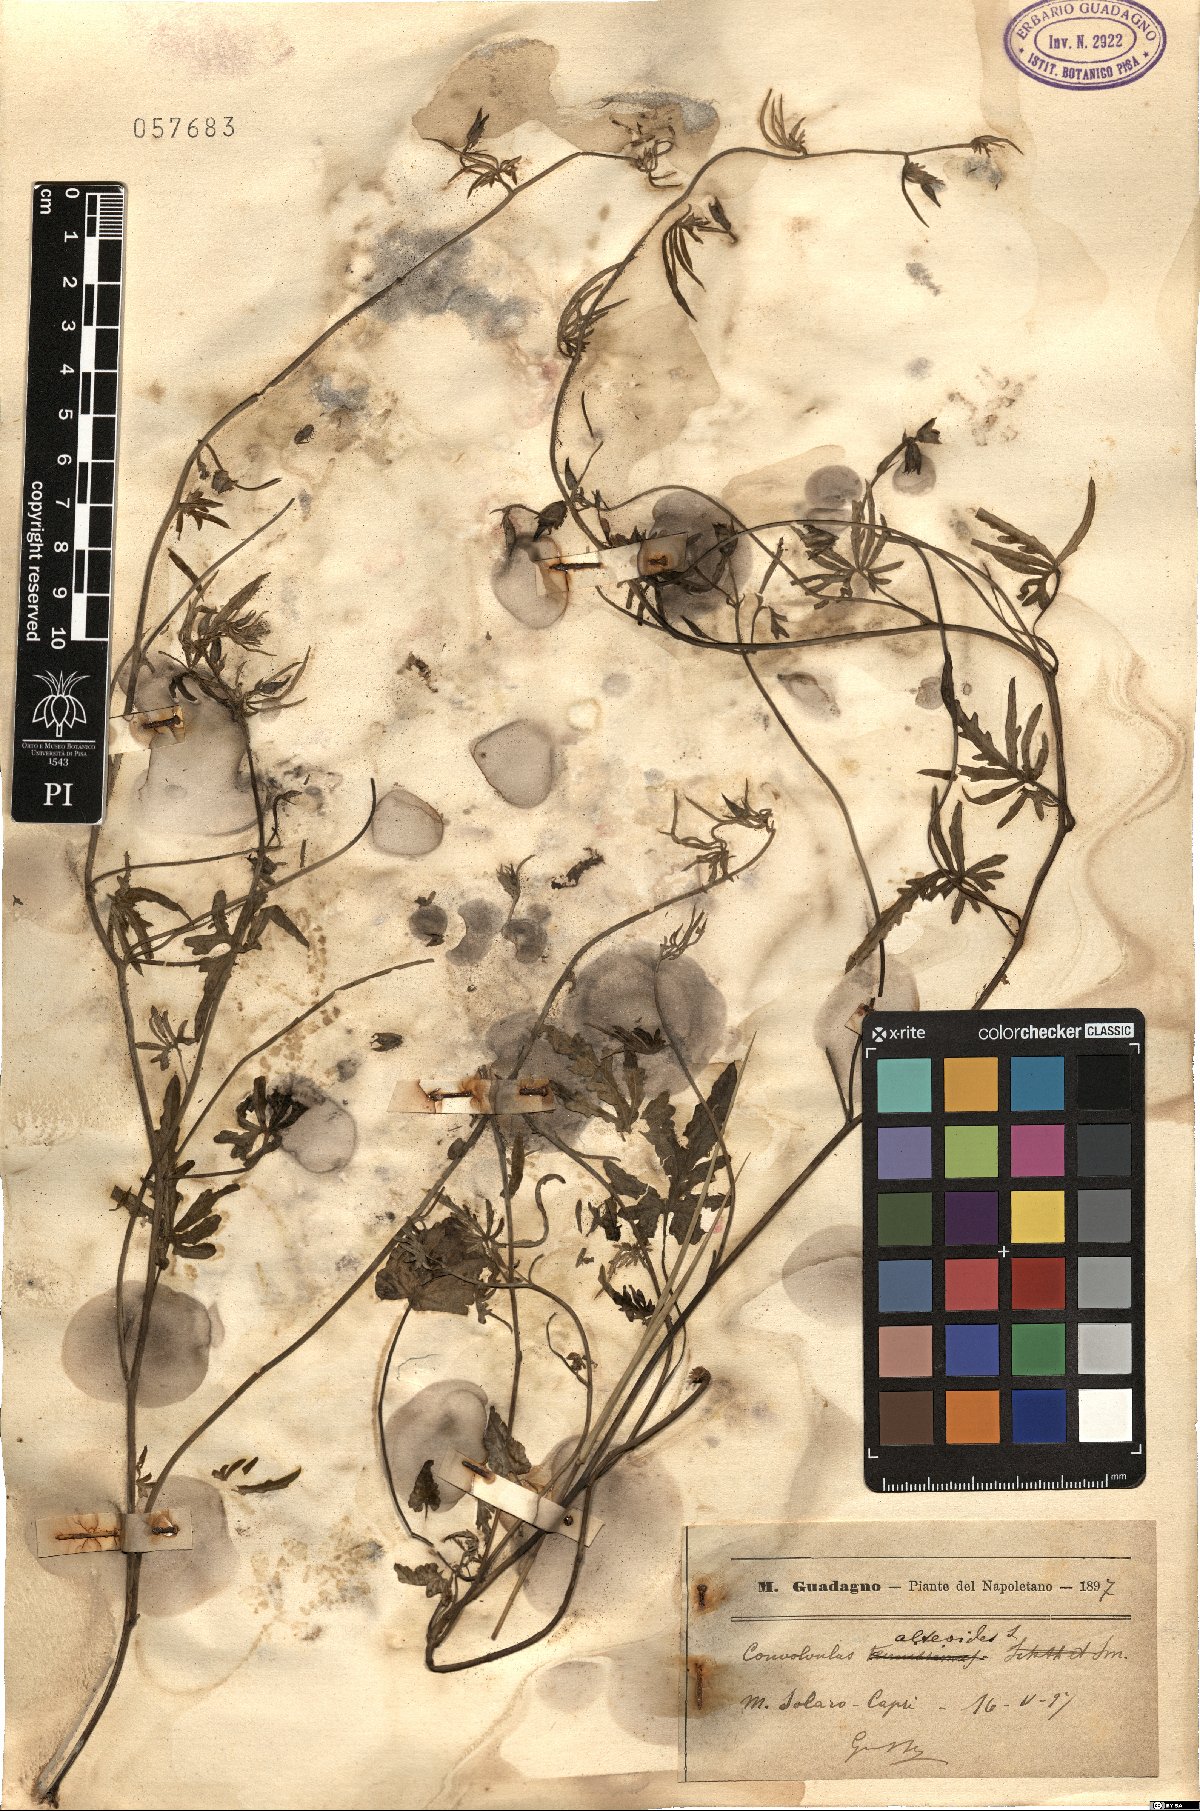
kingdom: Plantae
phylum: Tracheophyta
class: Magnoliopsida
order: Solanales
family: Convolvulaceae
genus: Convolvulus
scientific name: Convolvulus althaeoides
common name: Mallow bindweed
